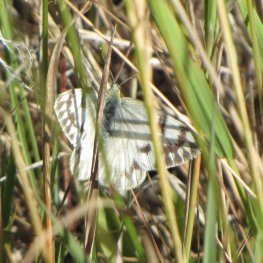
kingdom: Animalia
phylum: Arthropoda
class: Insecta
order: Lepidoptera
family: Pieridae
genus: Pontia
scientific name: Pontia occidentalis
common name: Western White
